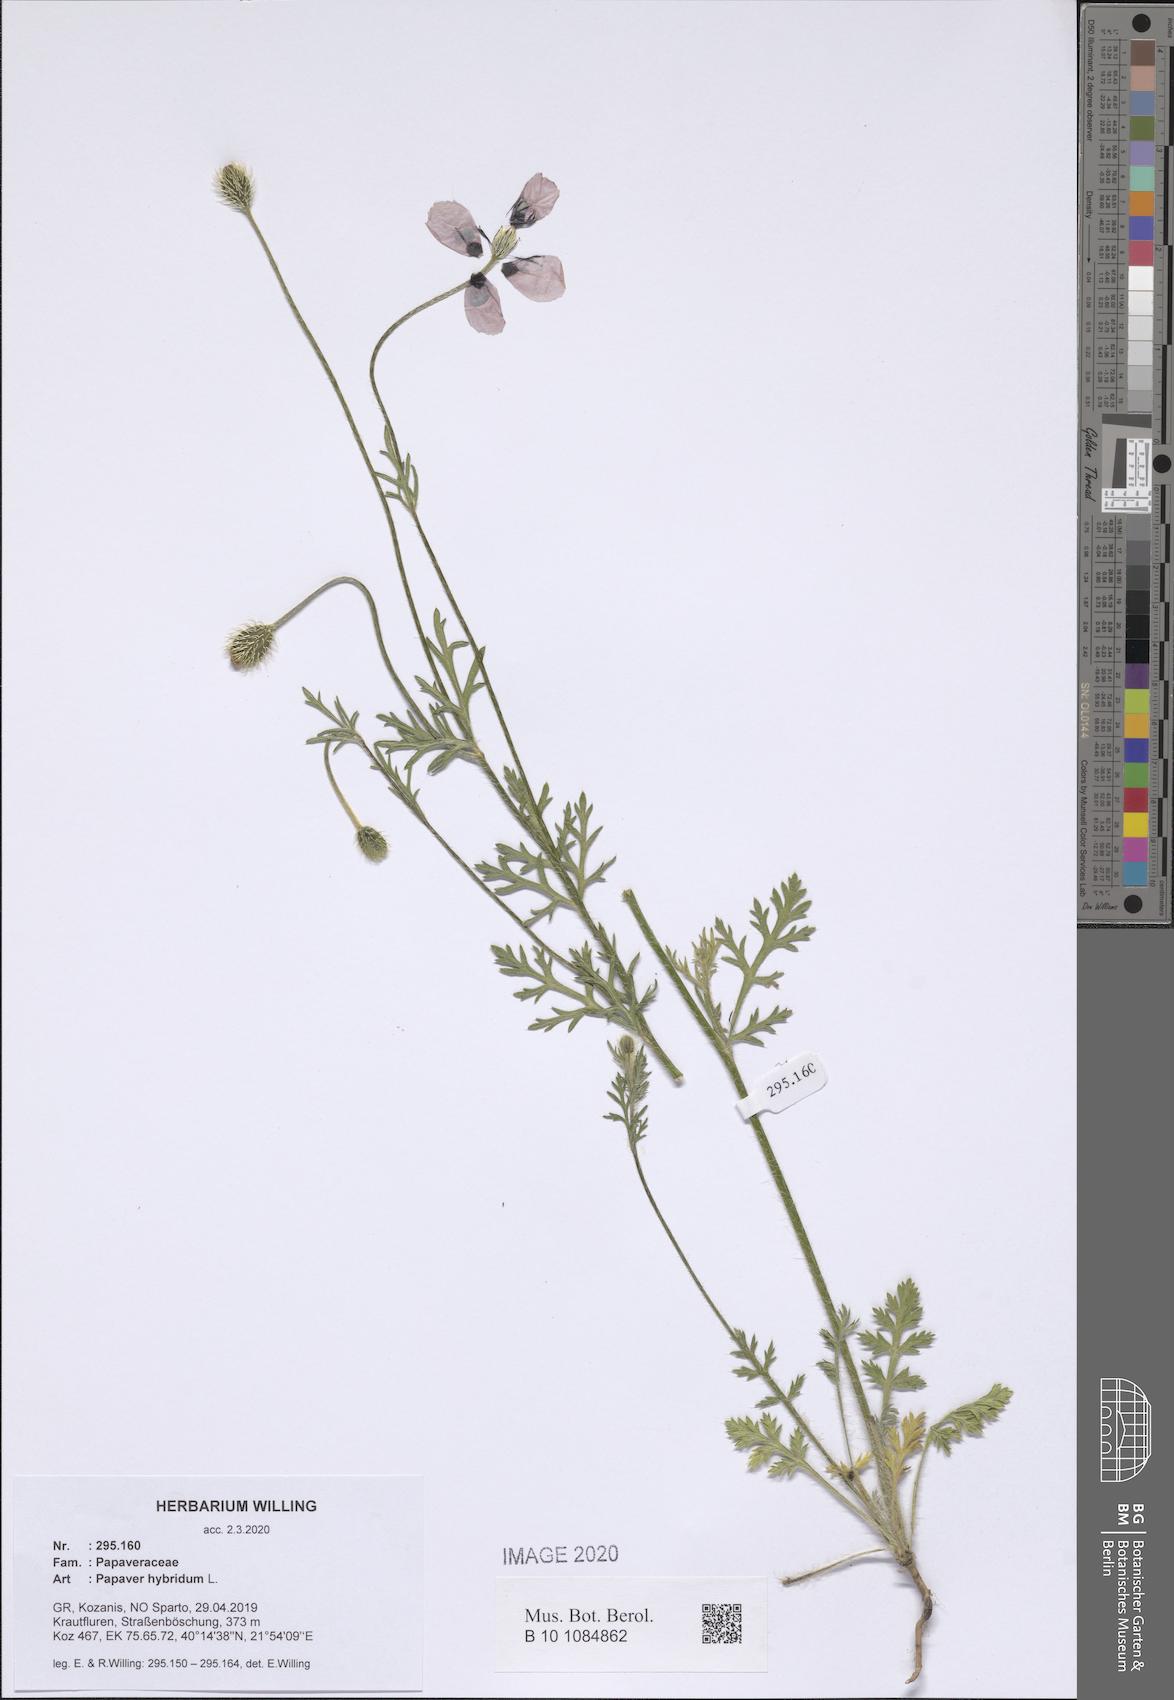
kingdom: Plantae
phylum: Tracheophyta
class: Magnoliopsida
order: Ranunculales
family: Papaveraceae
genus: Roemeria
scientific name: Roemeria hispida
